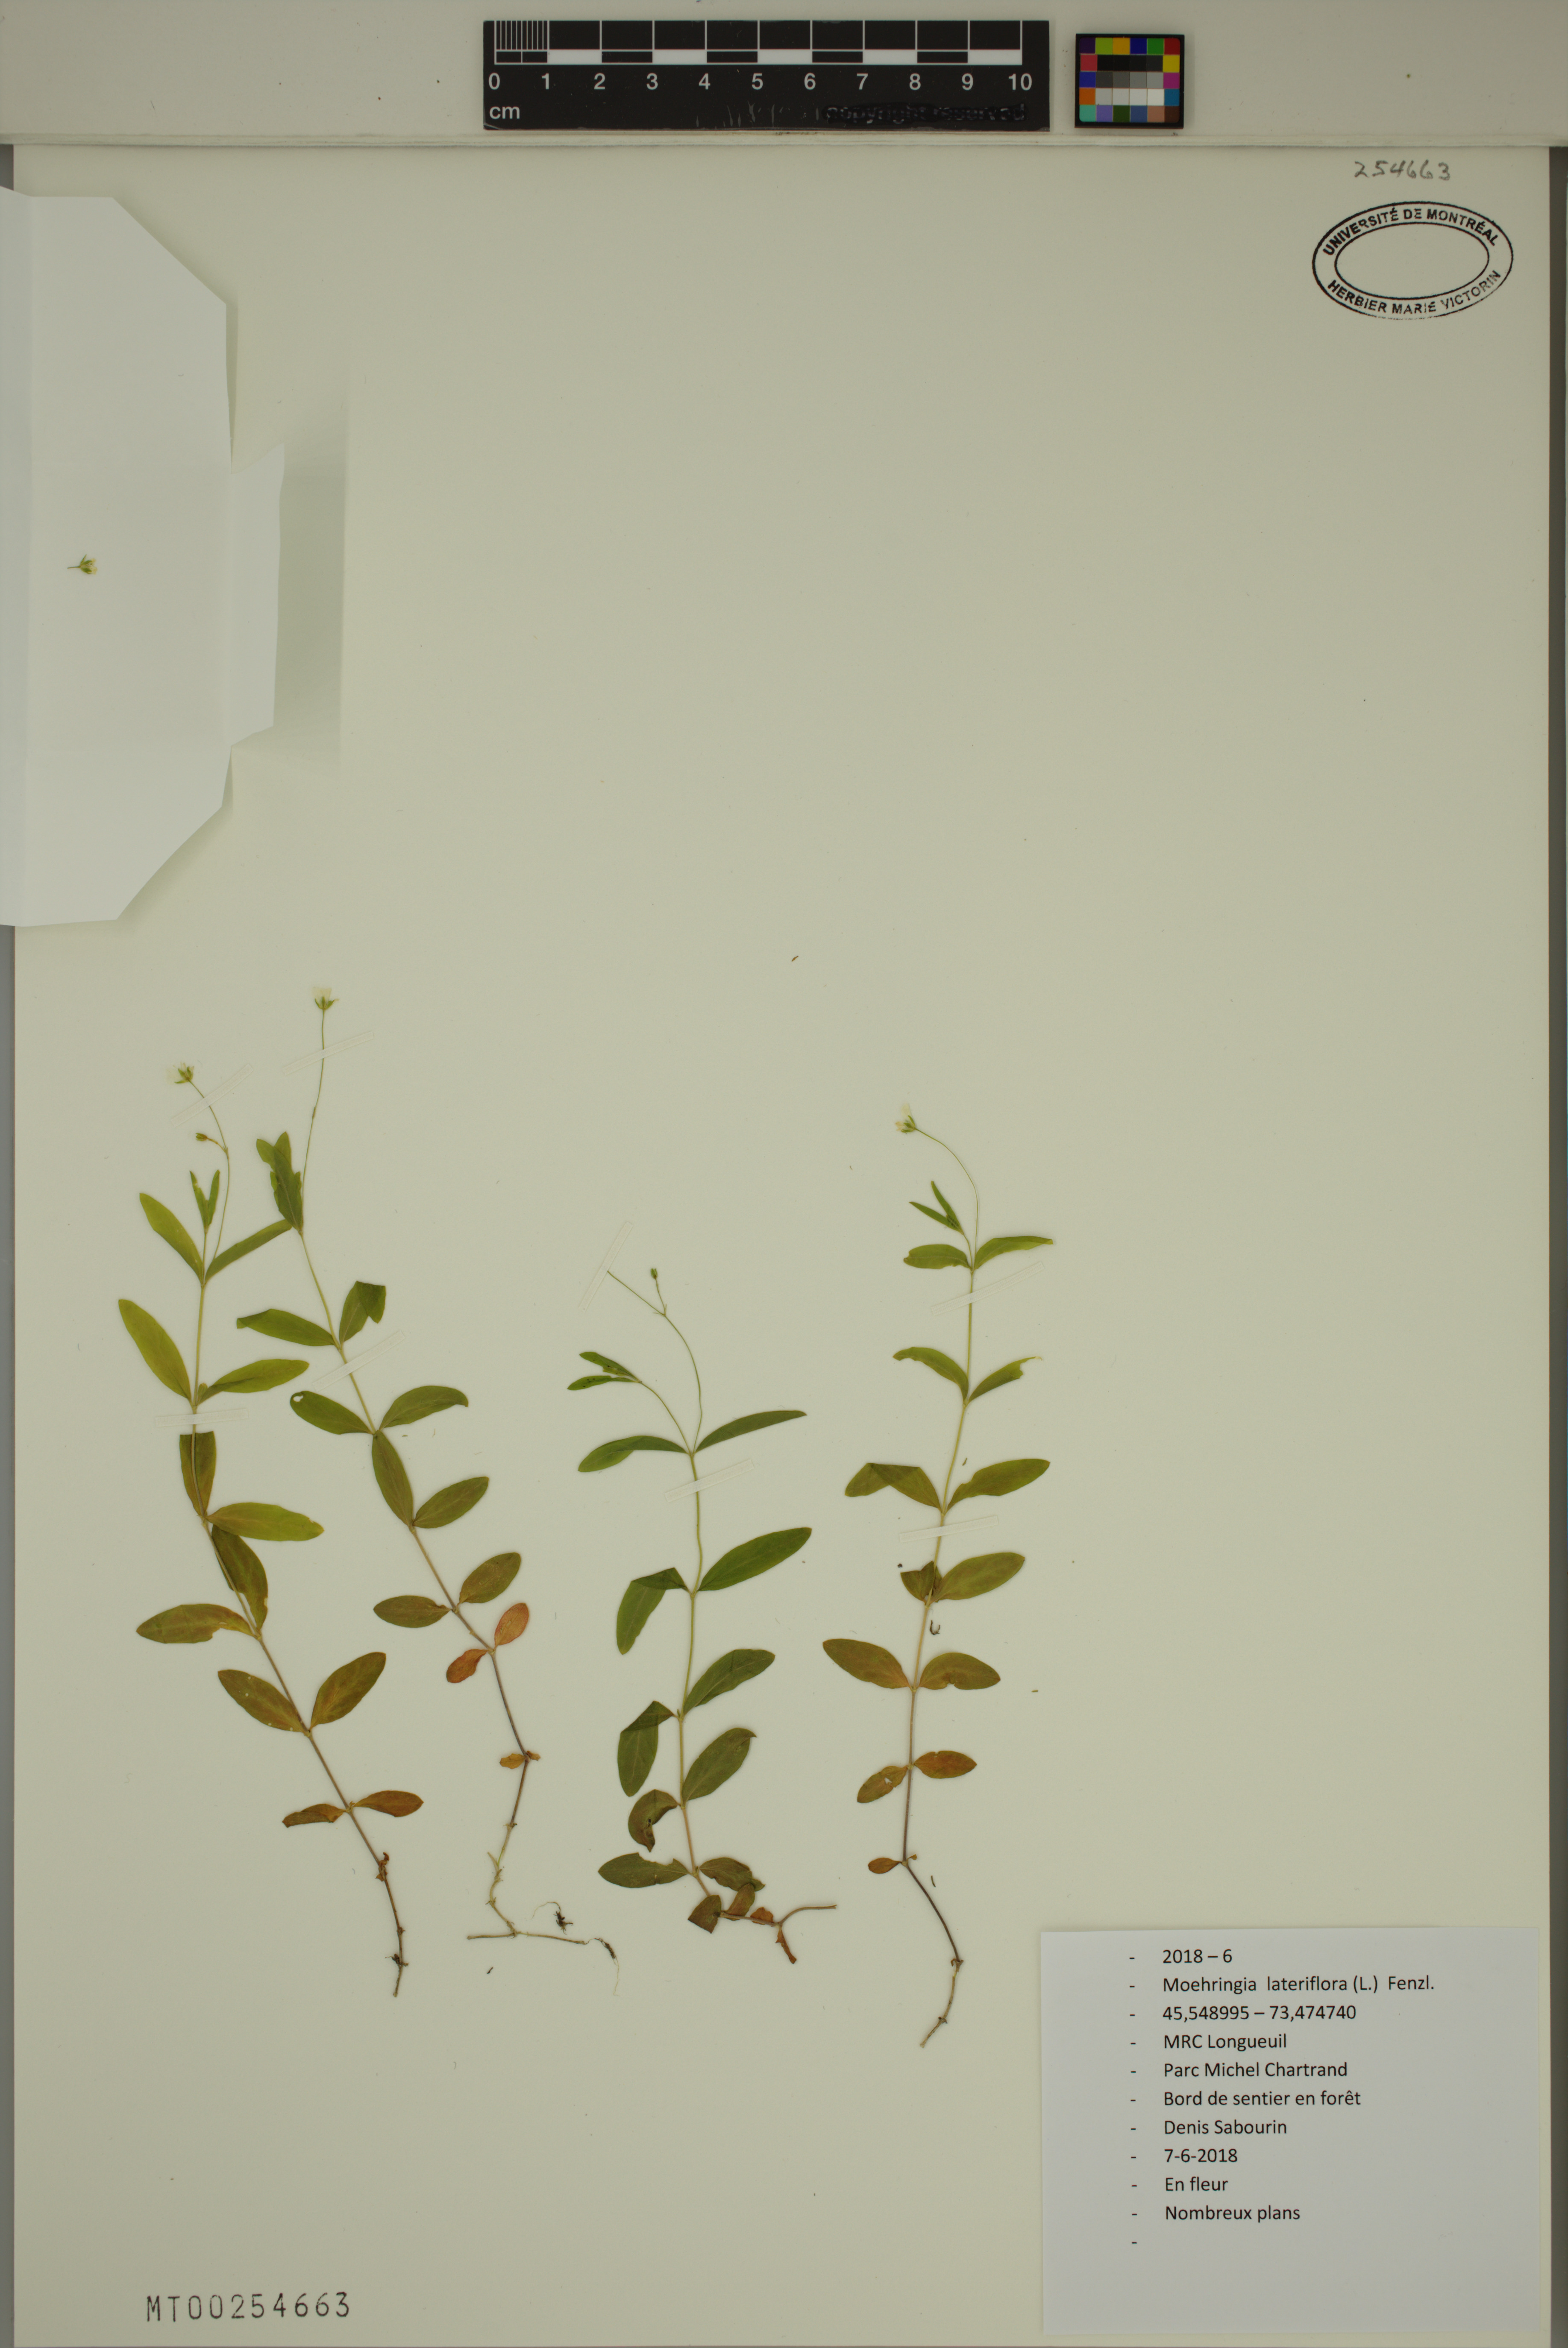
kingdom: Plantae
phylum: Tracheophyta
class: Magnoliopsida
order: Caryophyllales
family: Caryophyllaceae
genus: Moehringia
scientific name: Moehringia lateriflora
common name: Blunt-leaved sandwort
